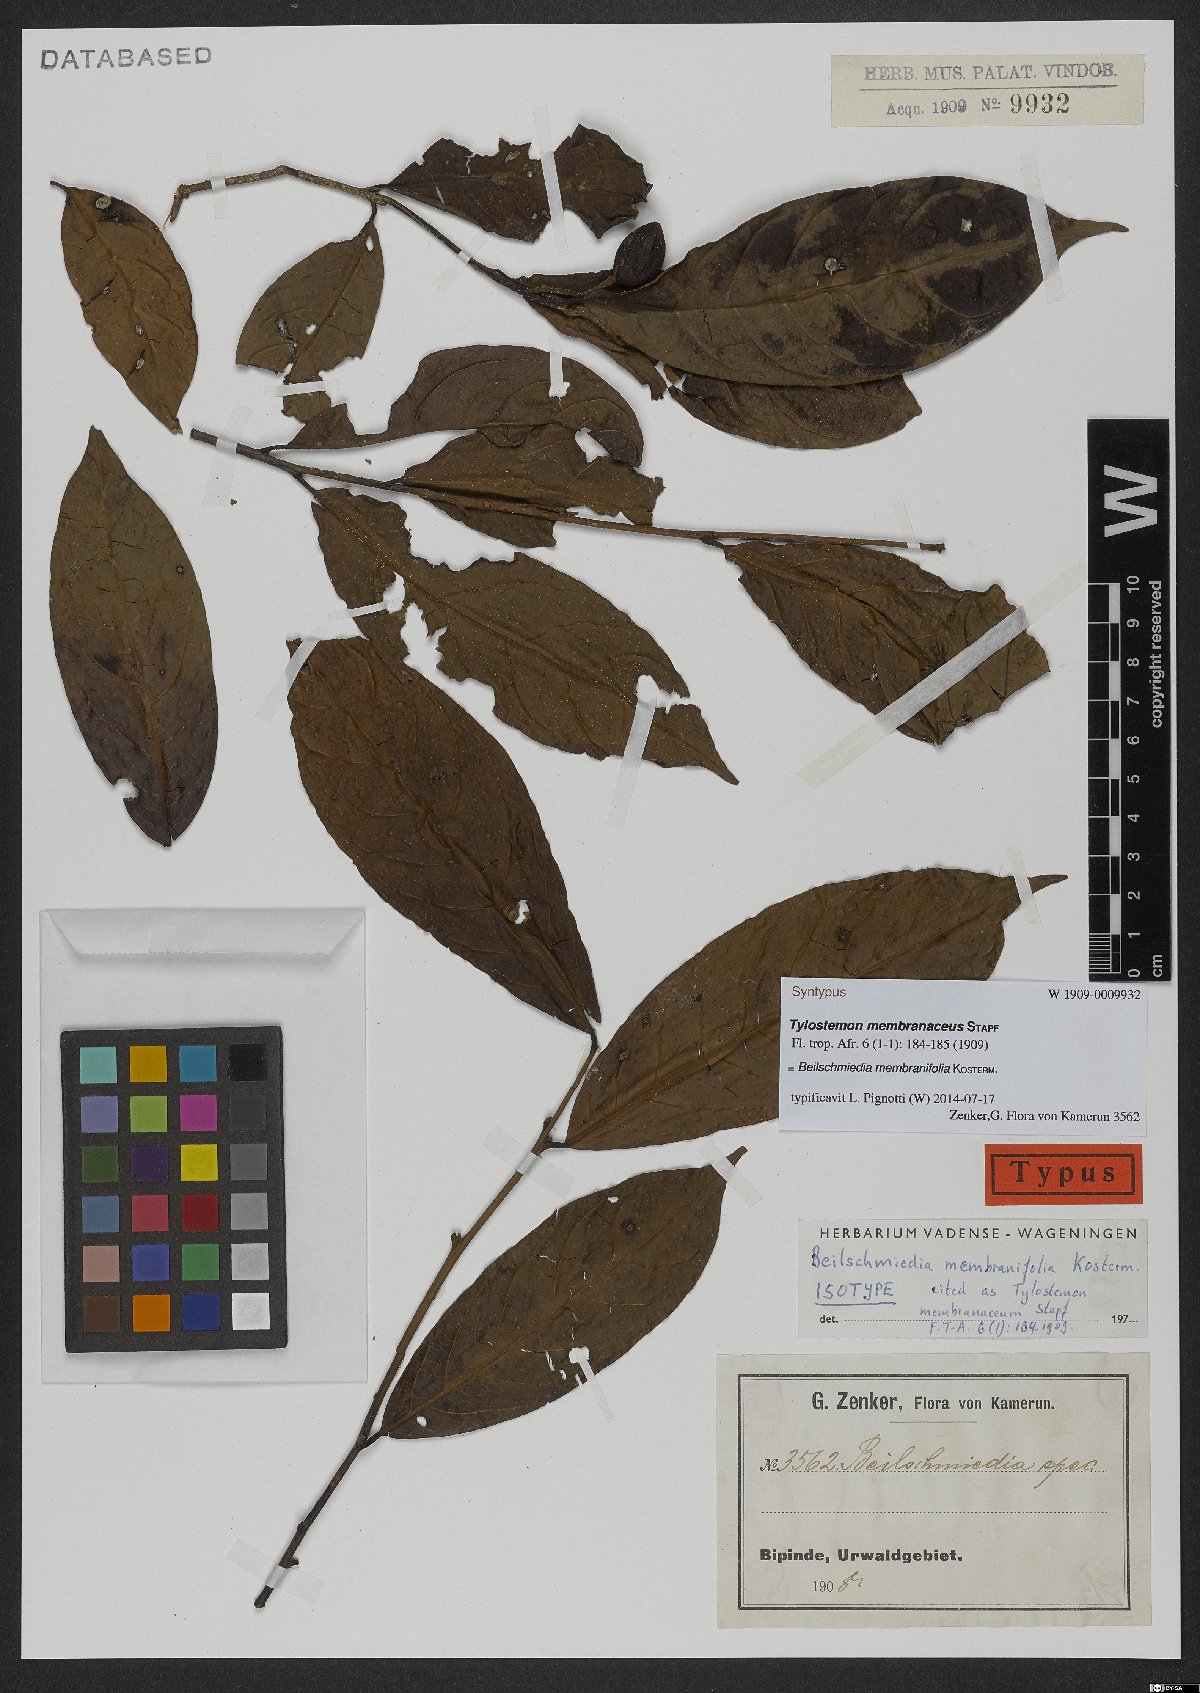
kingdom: Plantae
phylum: Tracheophyta
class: Magnoliopsida
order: Laurales
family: Lauraceae
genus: Beilschmiedia
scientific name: Beilschmiedia membranifolia
